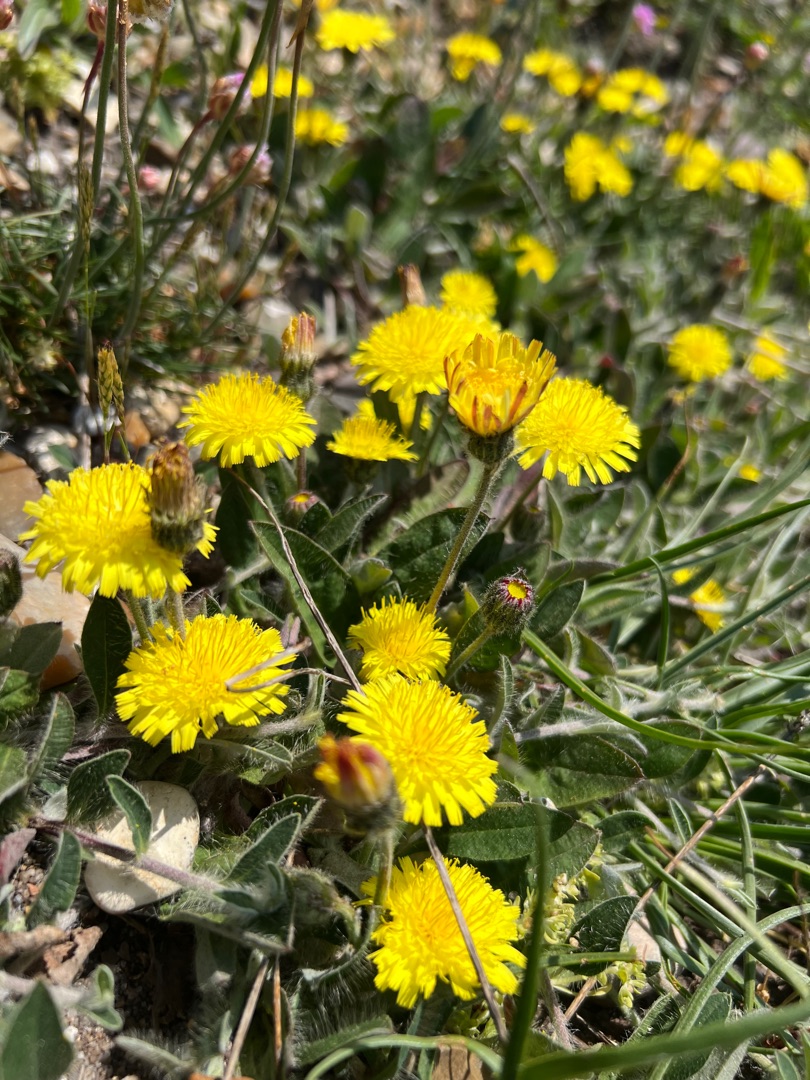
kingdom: Plantae
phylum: Tracheophyta
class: Magnoliopsida
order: Asterales
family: Asteraceae
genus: Pilosella
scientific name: Pilosella officinarum
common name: Håret høgeurt
